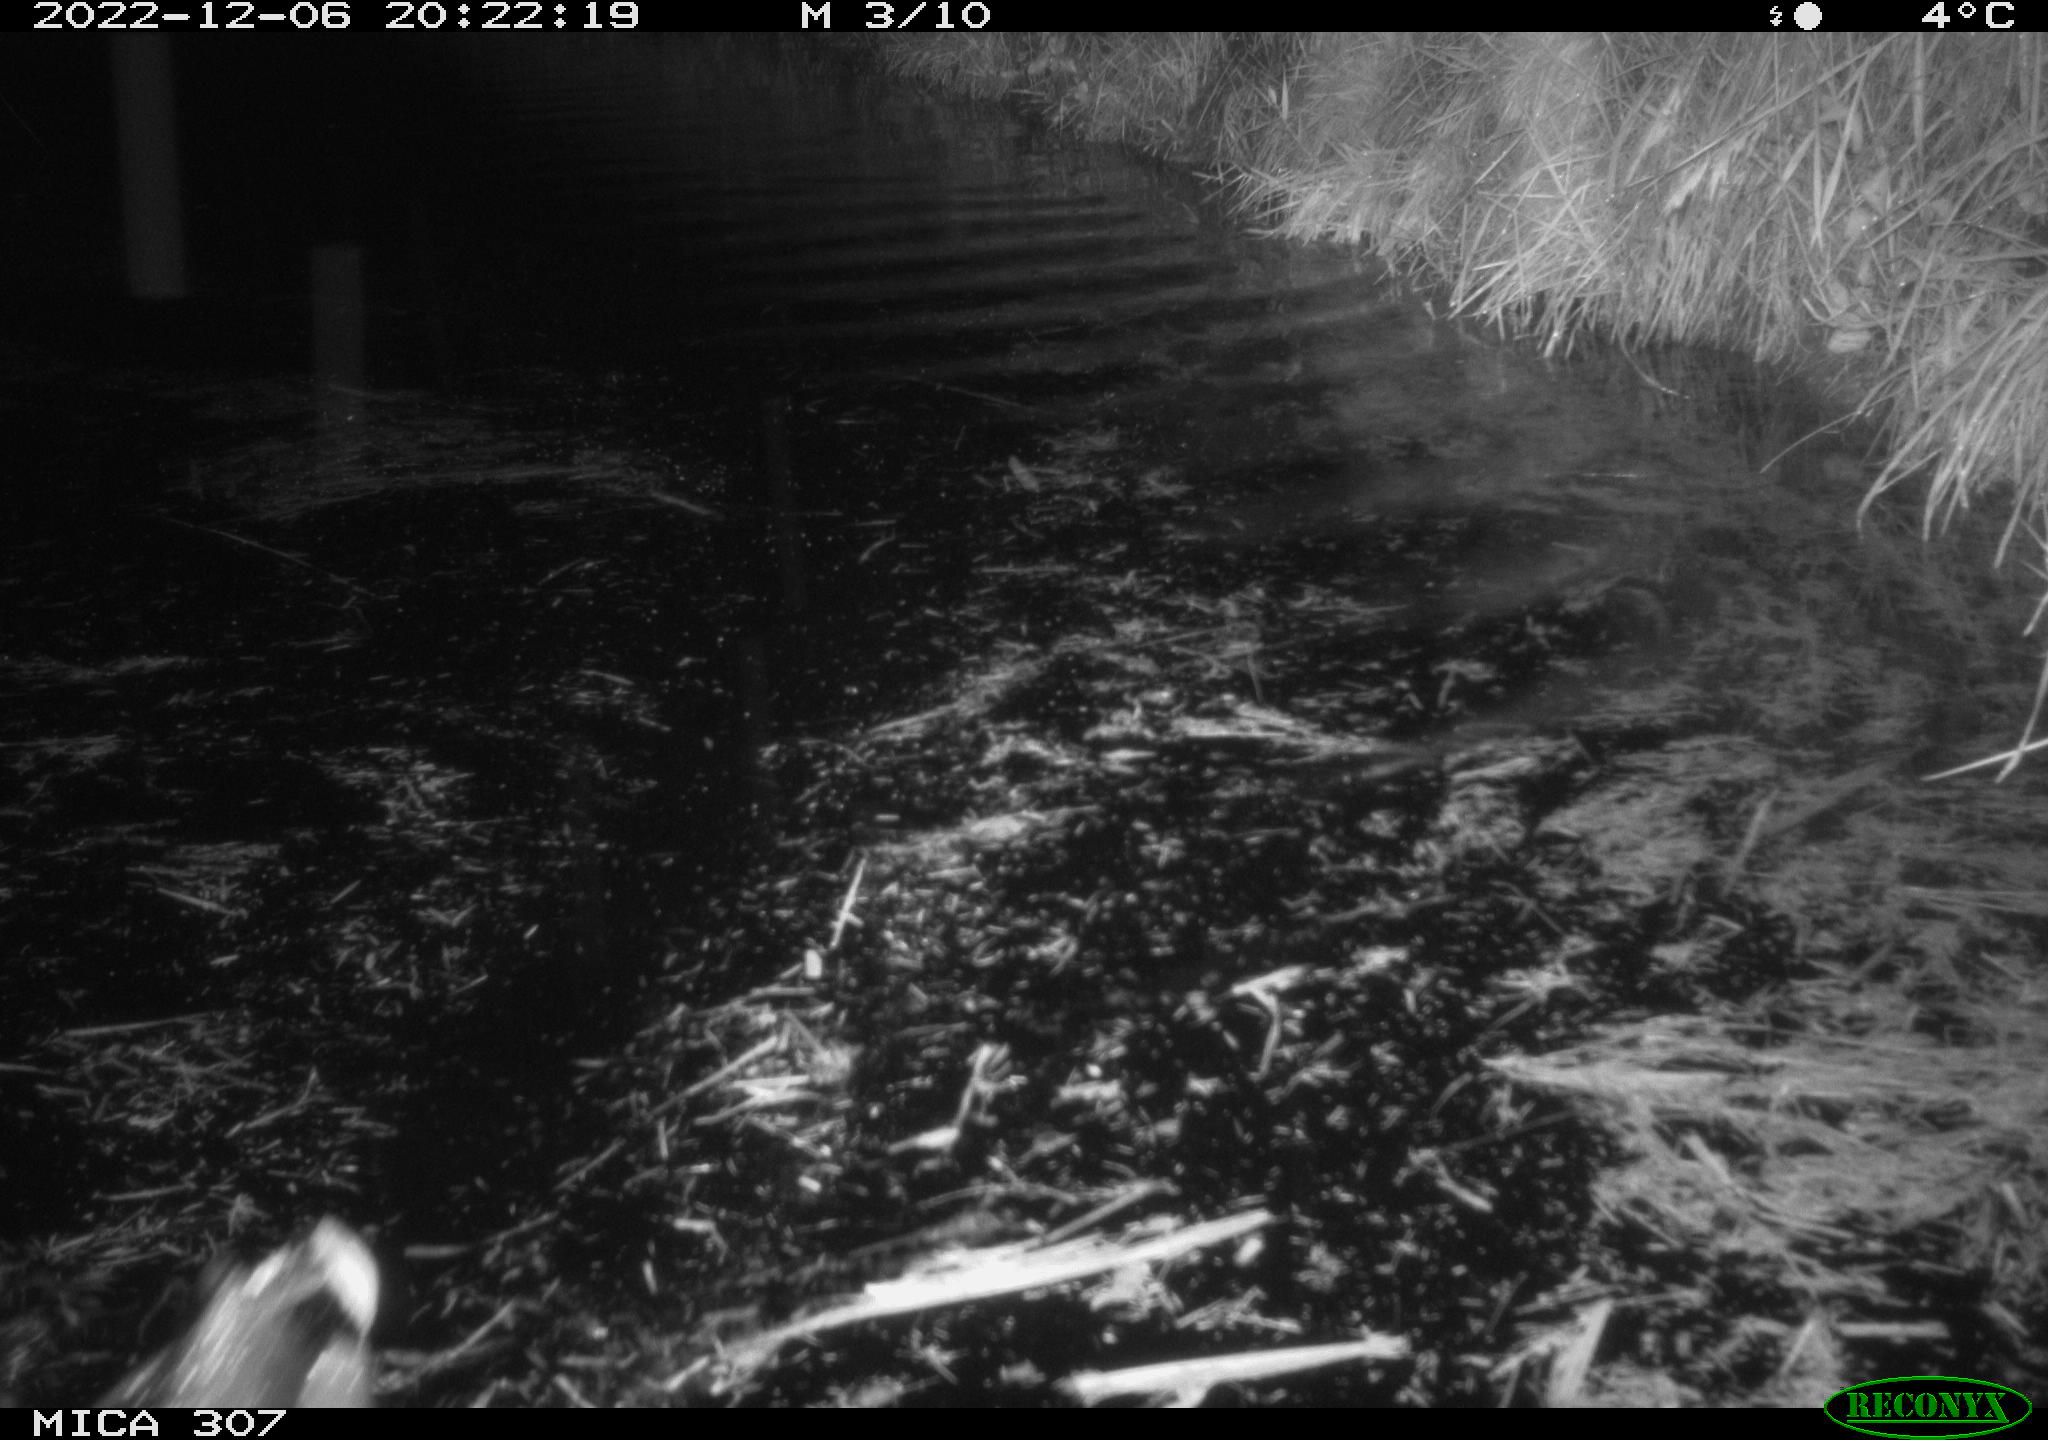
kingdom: Animalia
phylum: Chordata
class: Aves
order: Anseriformes
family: Anatidae
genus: Anas
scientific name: Anas
